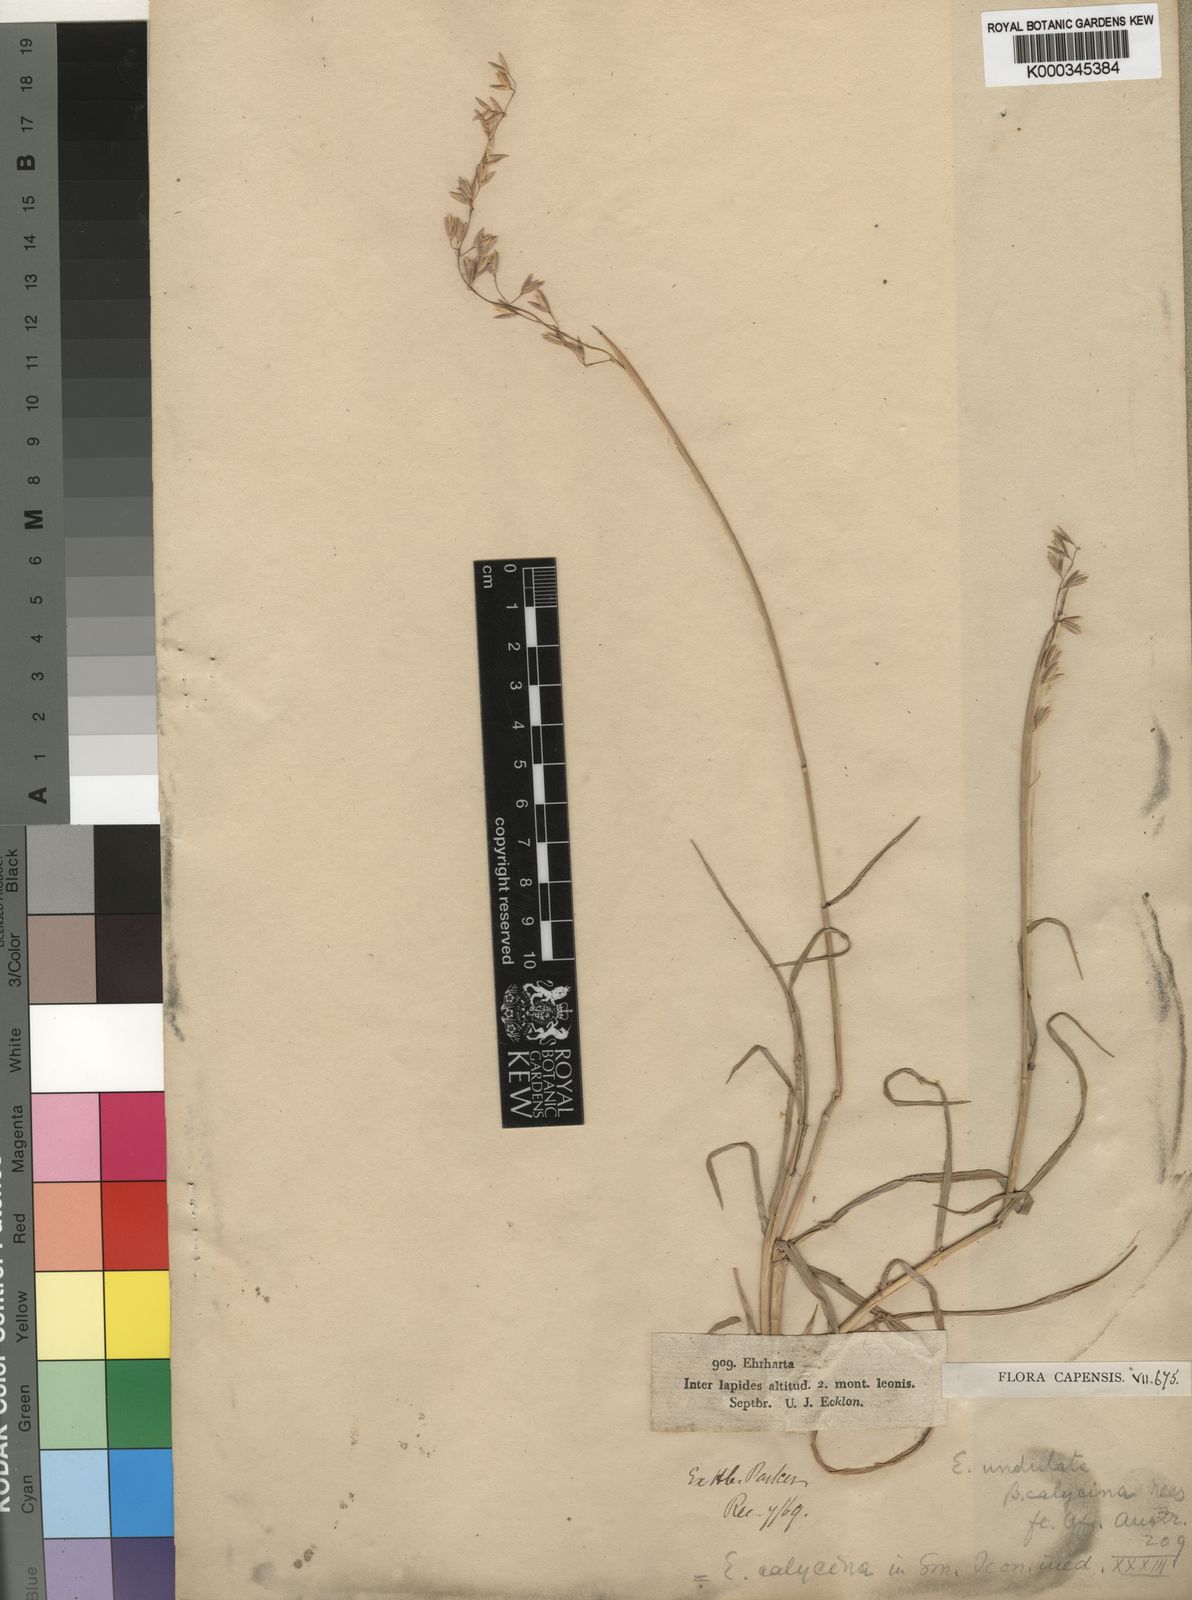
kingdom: Plantae
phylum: Tracheophyta
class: Liliopsida
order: Poales
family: Poaceae
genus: Ehrharta
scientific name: Ehrharta calycina
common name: Perennial veldtgrass
